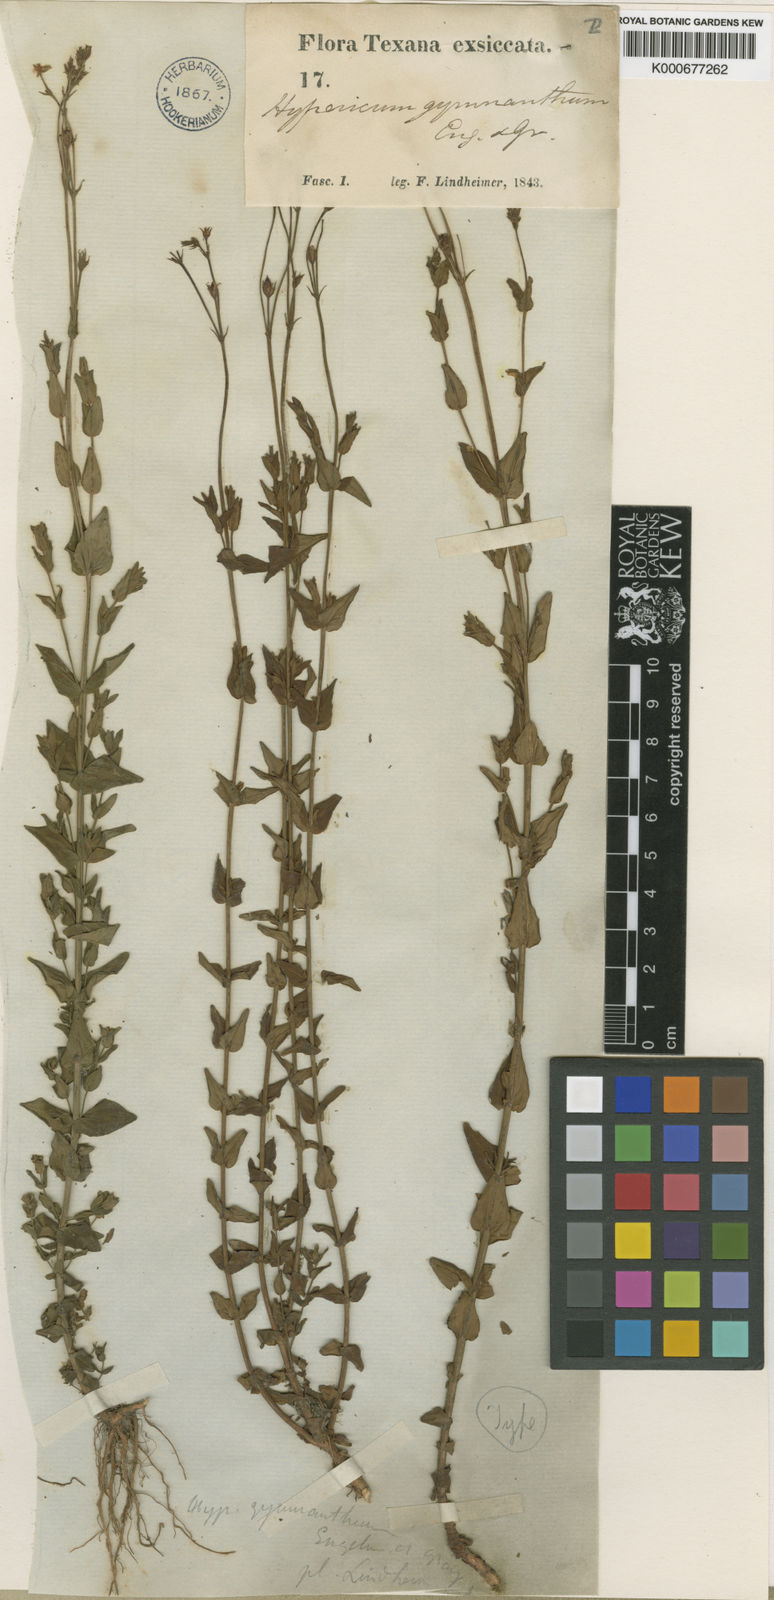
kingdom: Plantae
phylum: Tracheophyta
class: Magnoliopsida
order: Malpighiales
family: Hypericaceae
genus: Hypericum
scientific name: Hypericum gymnanthum
